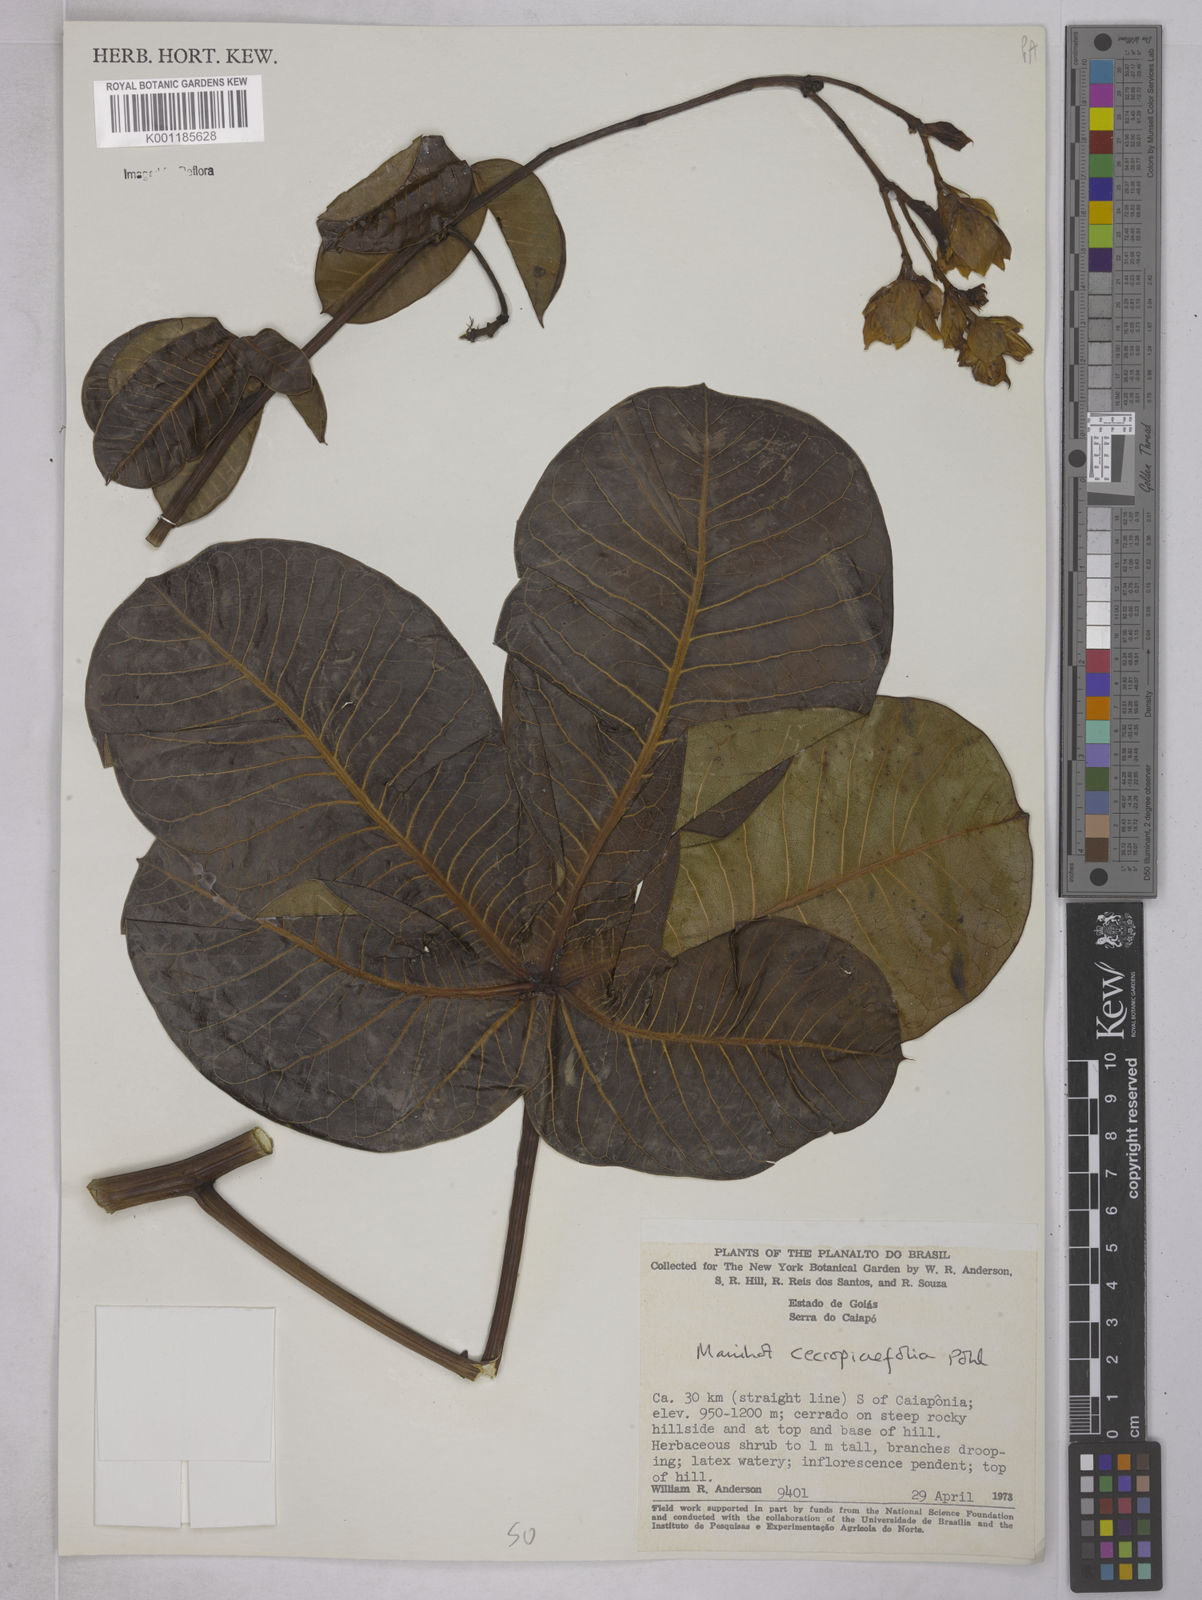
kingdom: Plantae
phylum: Tracheophyta
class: Magnoliopsida
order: Malpighiales
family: Euphorbiaceae
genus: Manihot
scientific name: Manihot cecropiifolia
